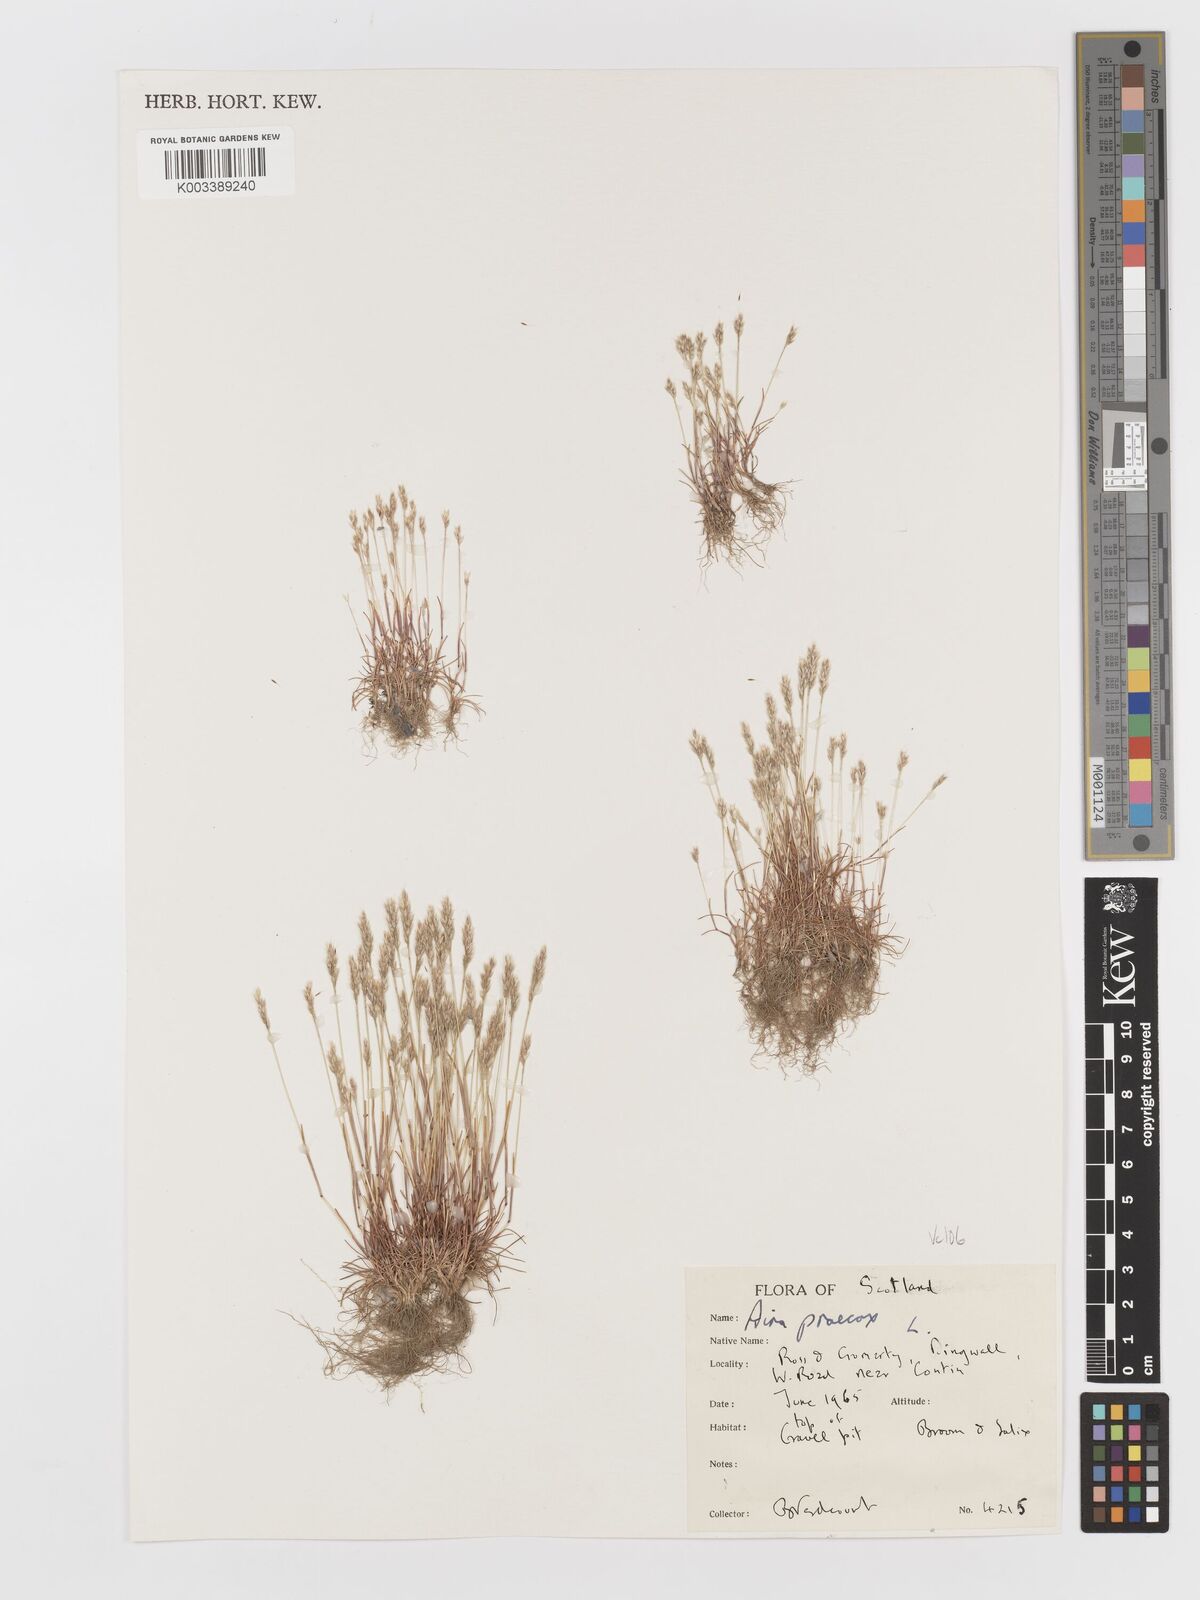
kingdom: Plantae
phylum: Tracheophyta
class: Liliopsida
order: Poales
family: Poaceae
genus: Aira
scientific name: Aira praecox
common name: Early hair-grass
